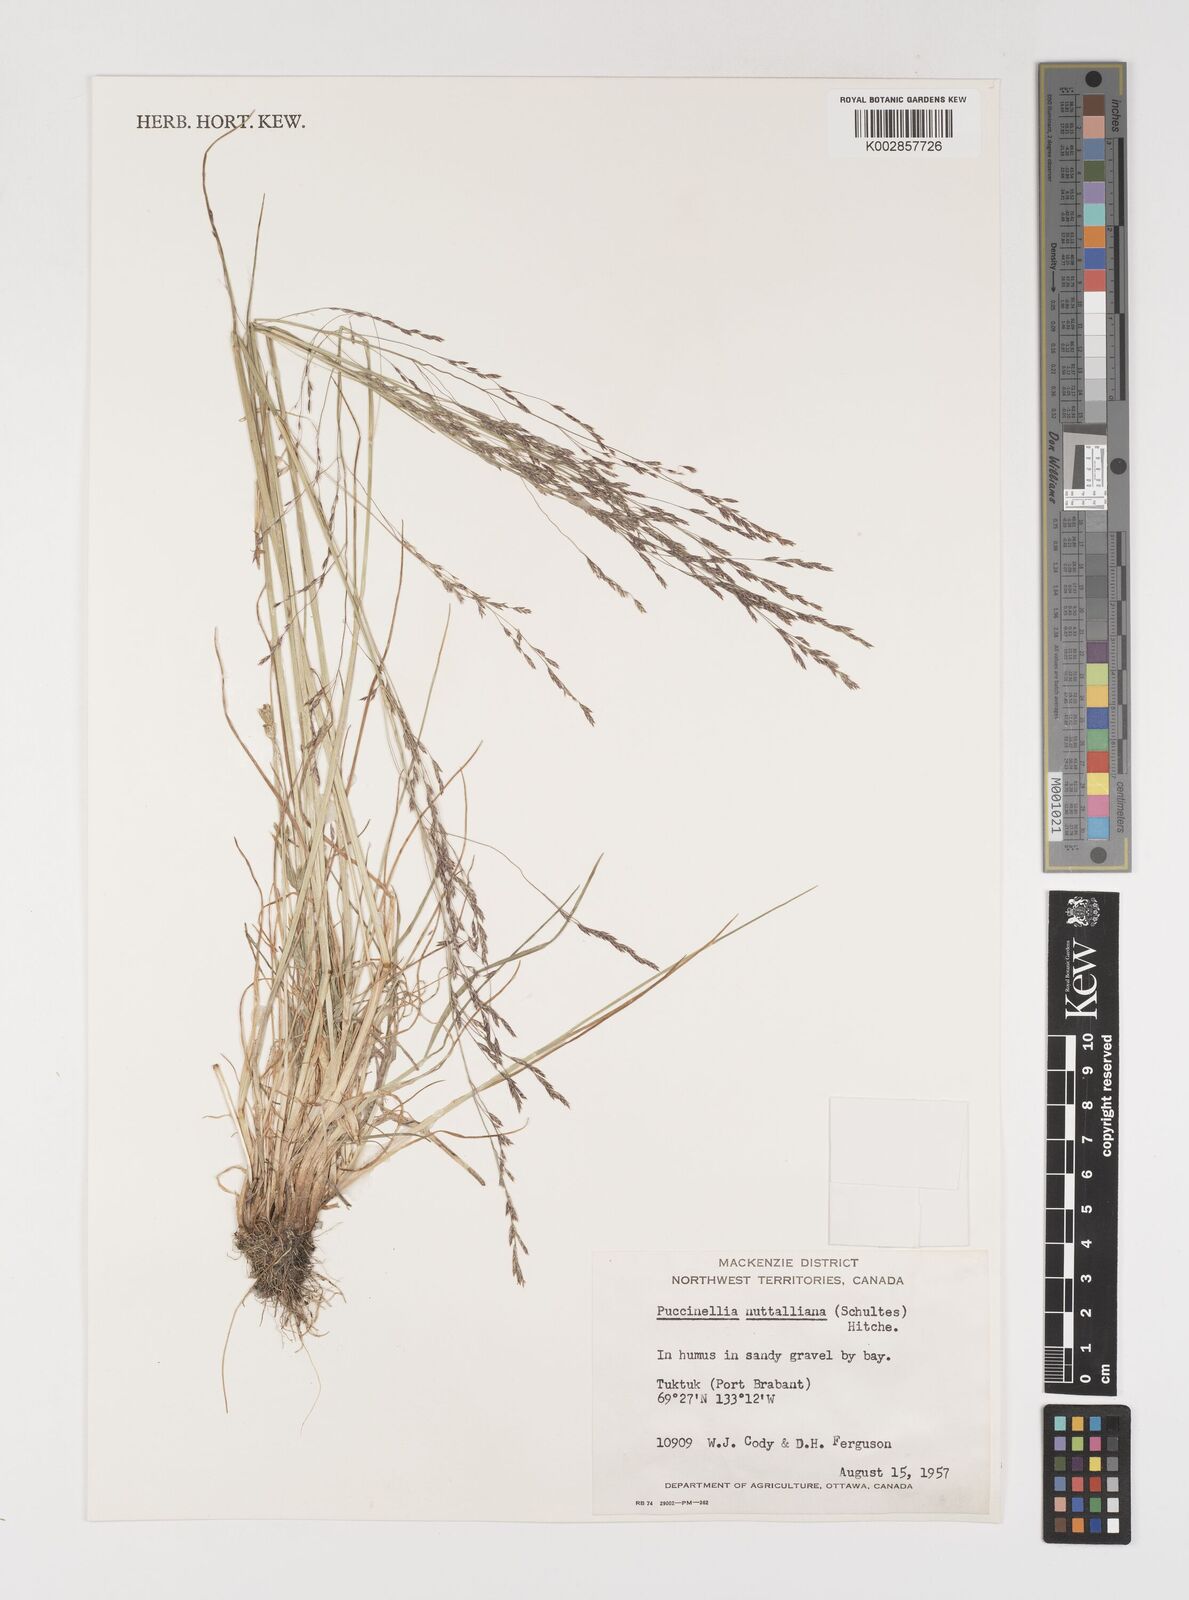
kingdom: Plantae
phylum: Tracheophyta
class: Liliopsida
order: Poales
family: Poaceae
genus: Puccinellia
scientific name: Puccinellia nuttalliana
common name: Nuttall's alkali grass
